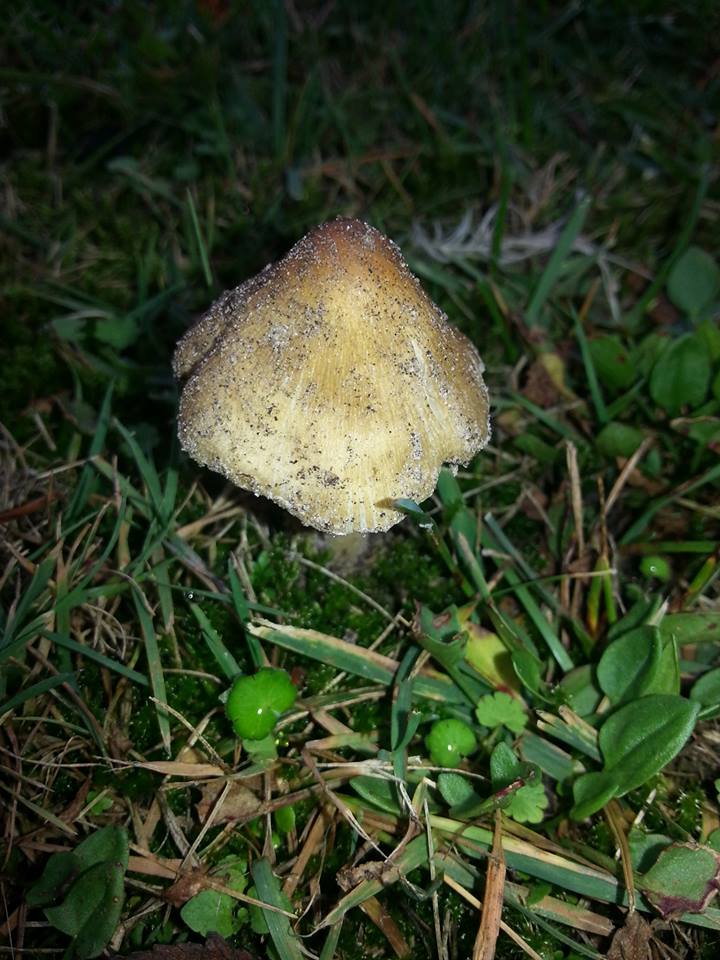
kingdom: Fungi
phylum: Basidiomycota
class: Agaricomycetes
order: Agaricales
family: Inocybaceae
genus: Pseudosperma
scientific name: Pseudosperma
